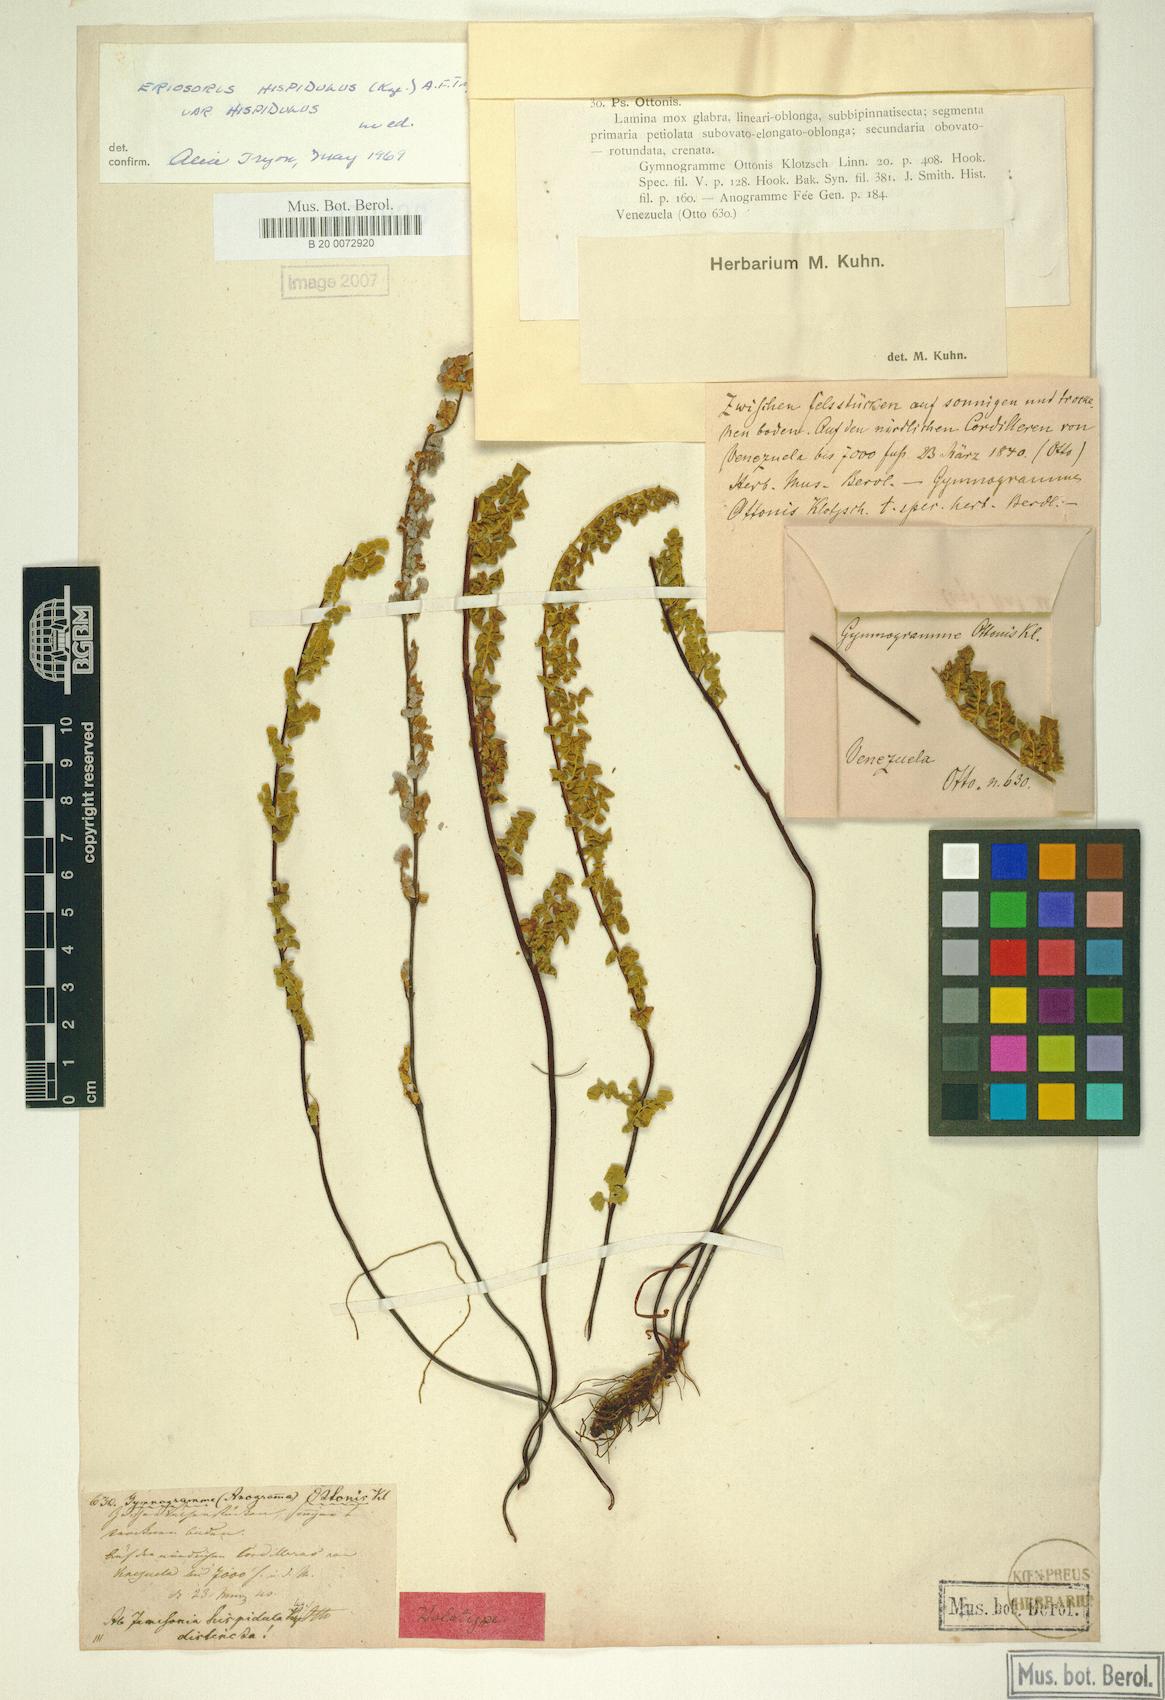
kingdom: Plantae
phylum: Tracheophyta
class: Polypodiopsida
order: Polypodiales
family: Pteridaceae
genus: Jamesonia
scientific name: Jamesonia hispidula
